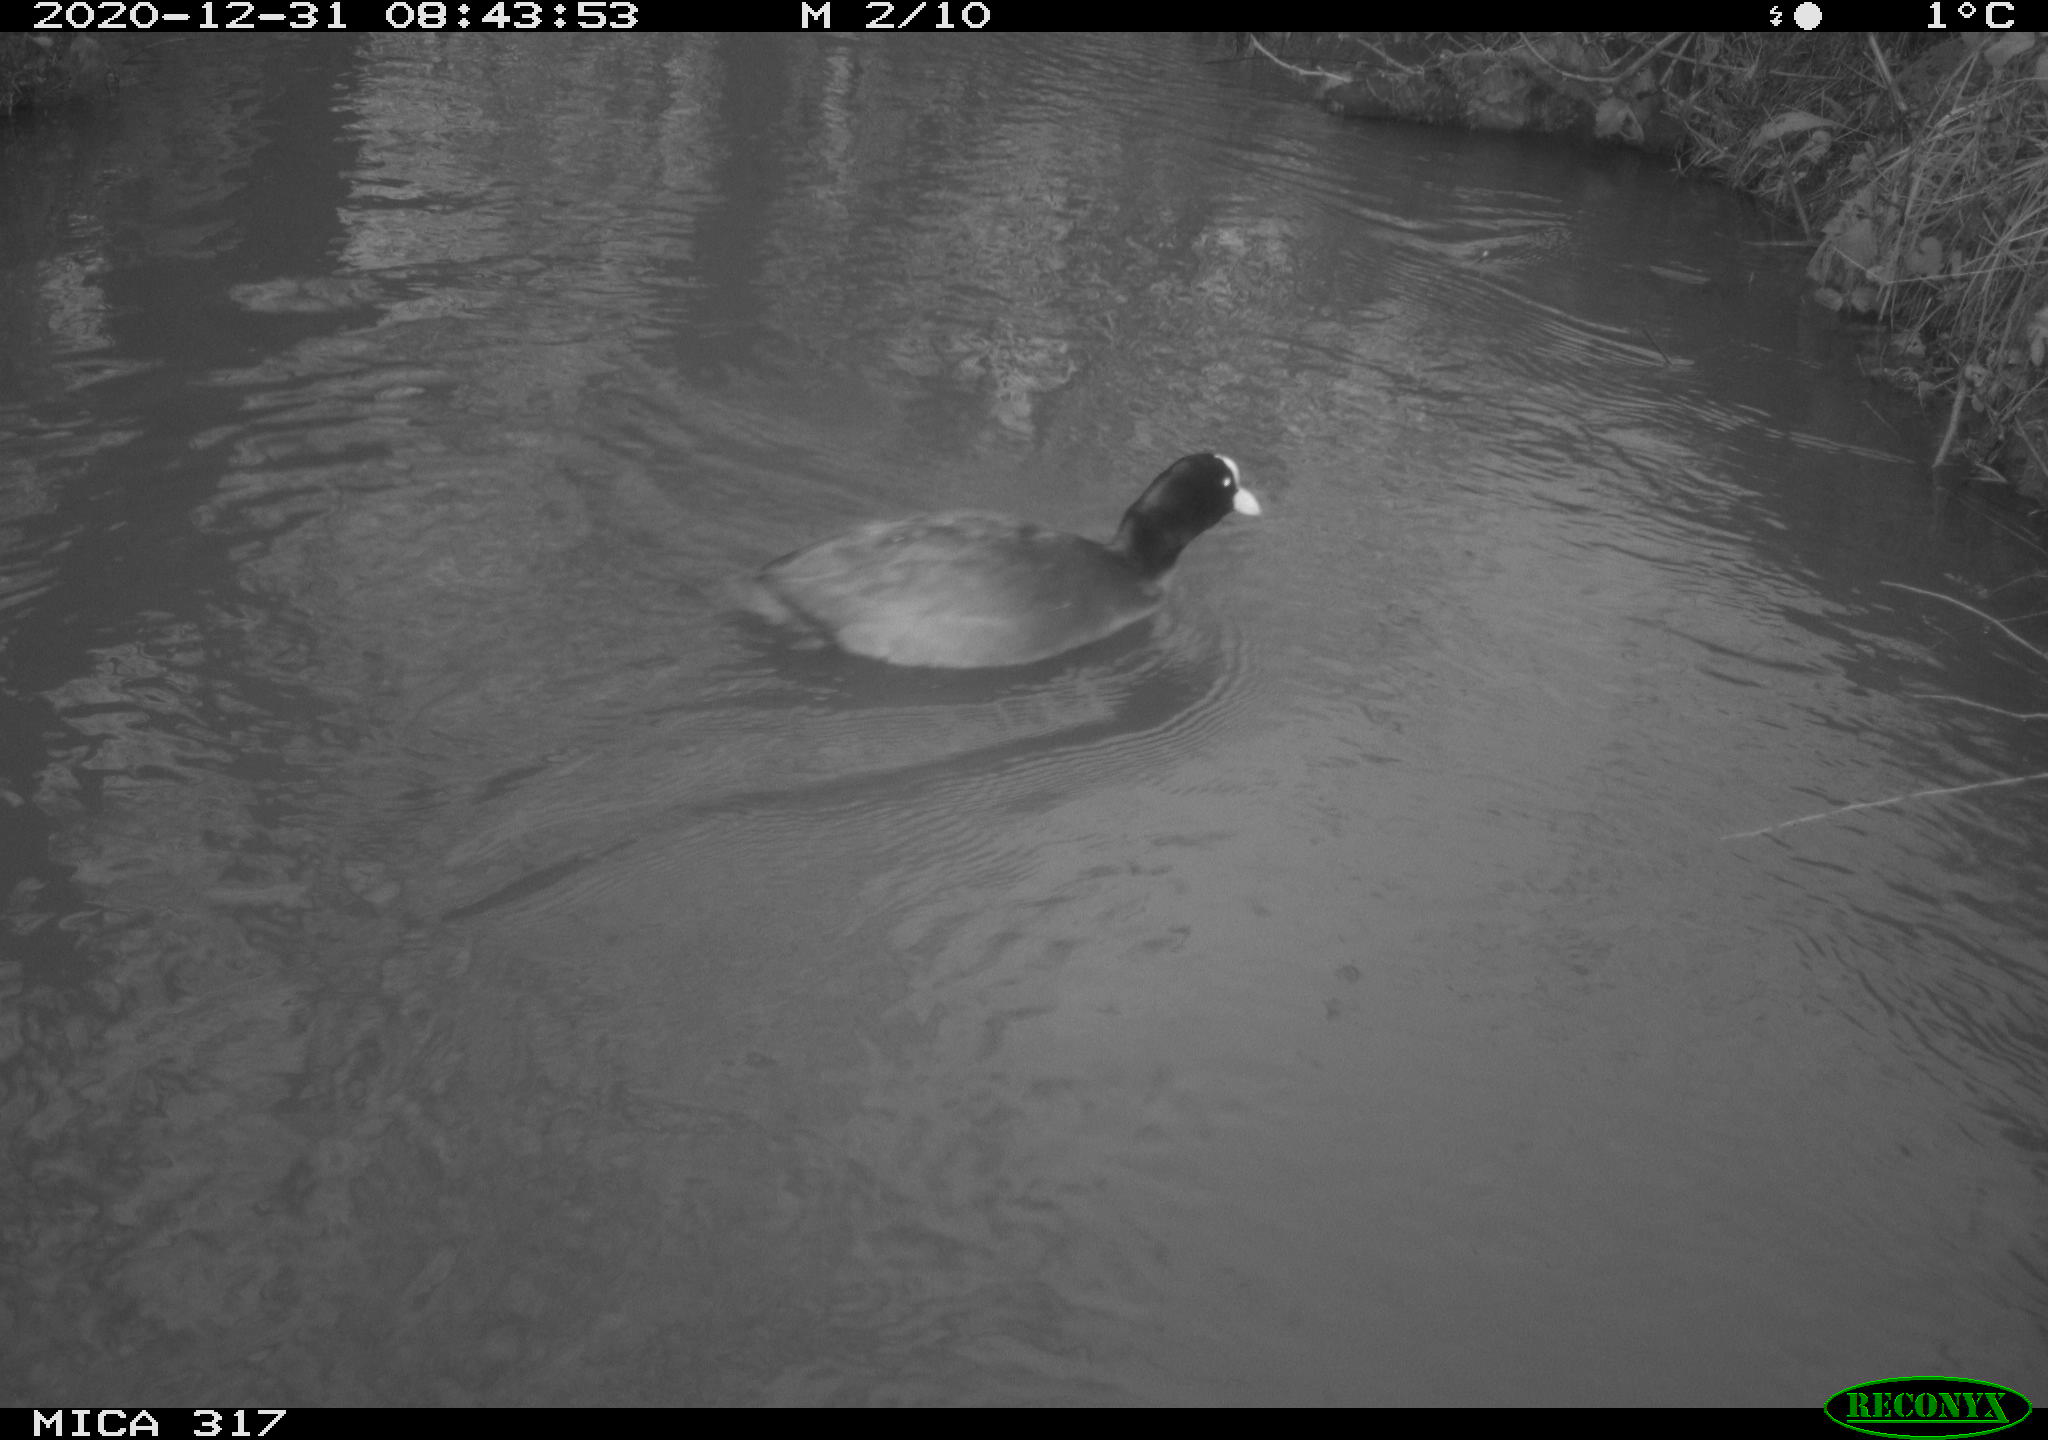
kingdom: Animalia
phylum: Chordata
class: Aves
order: Gruiformes
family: Rallidae
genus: Fulica
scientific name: Fulica atra
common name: Eurasian coot
